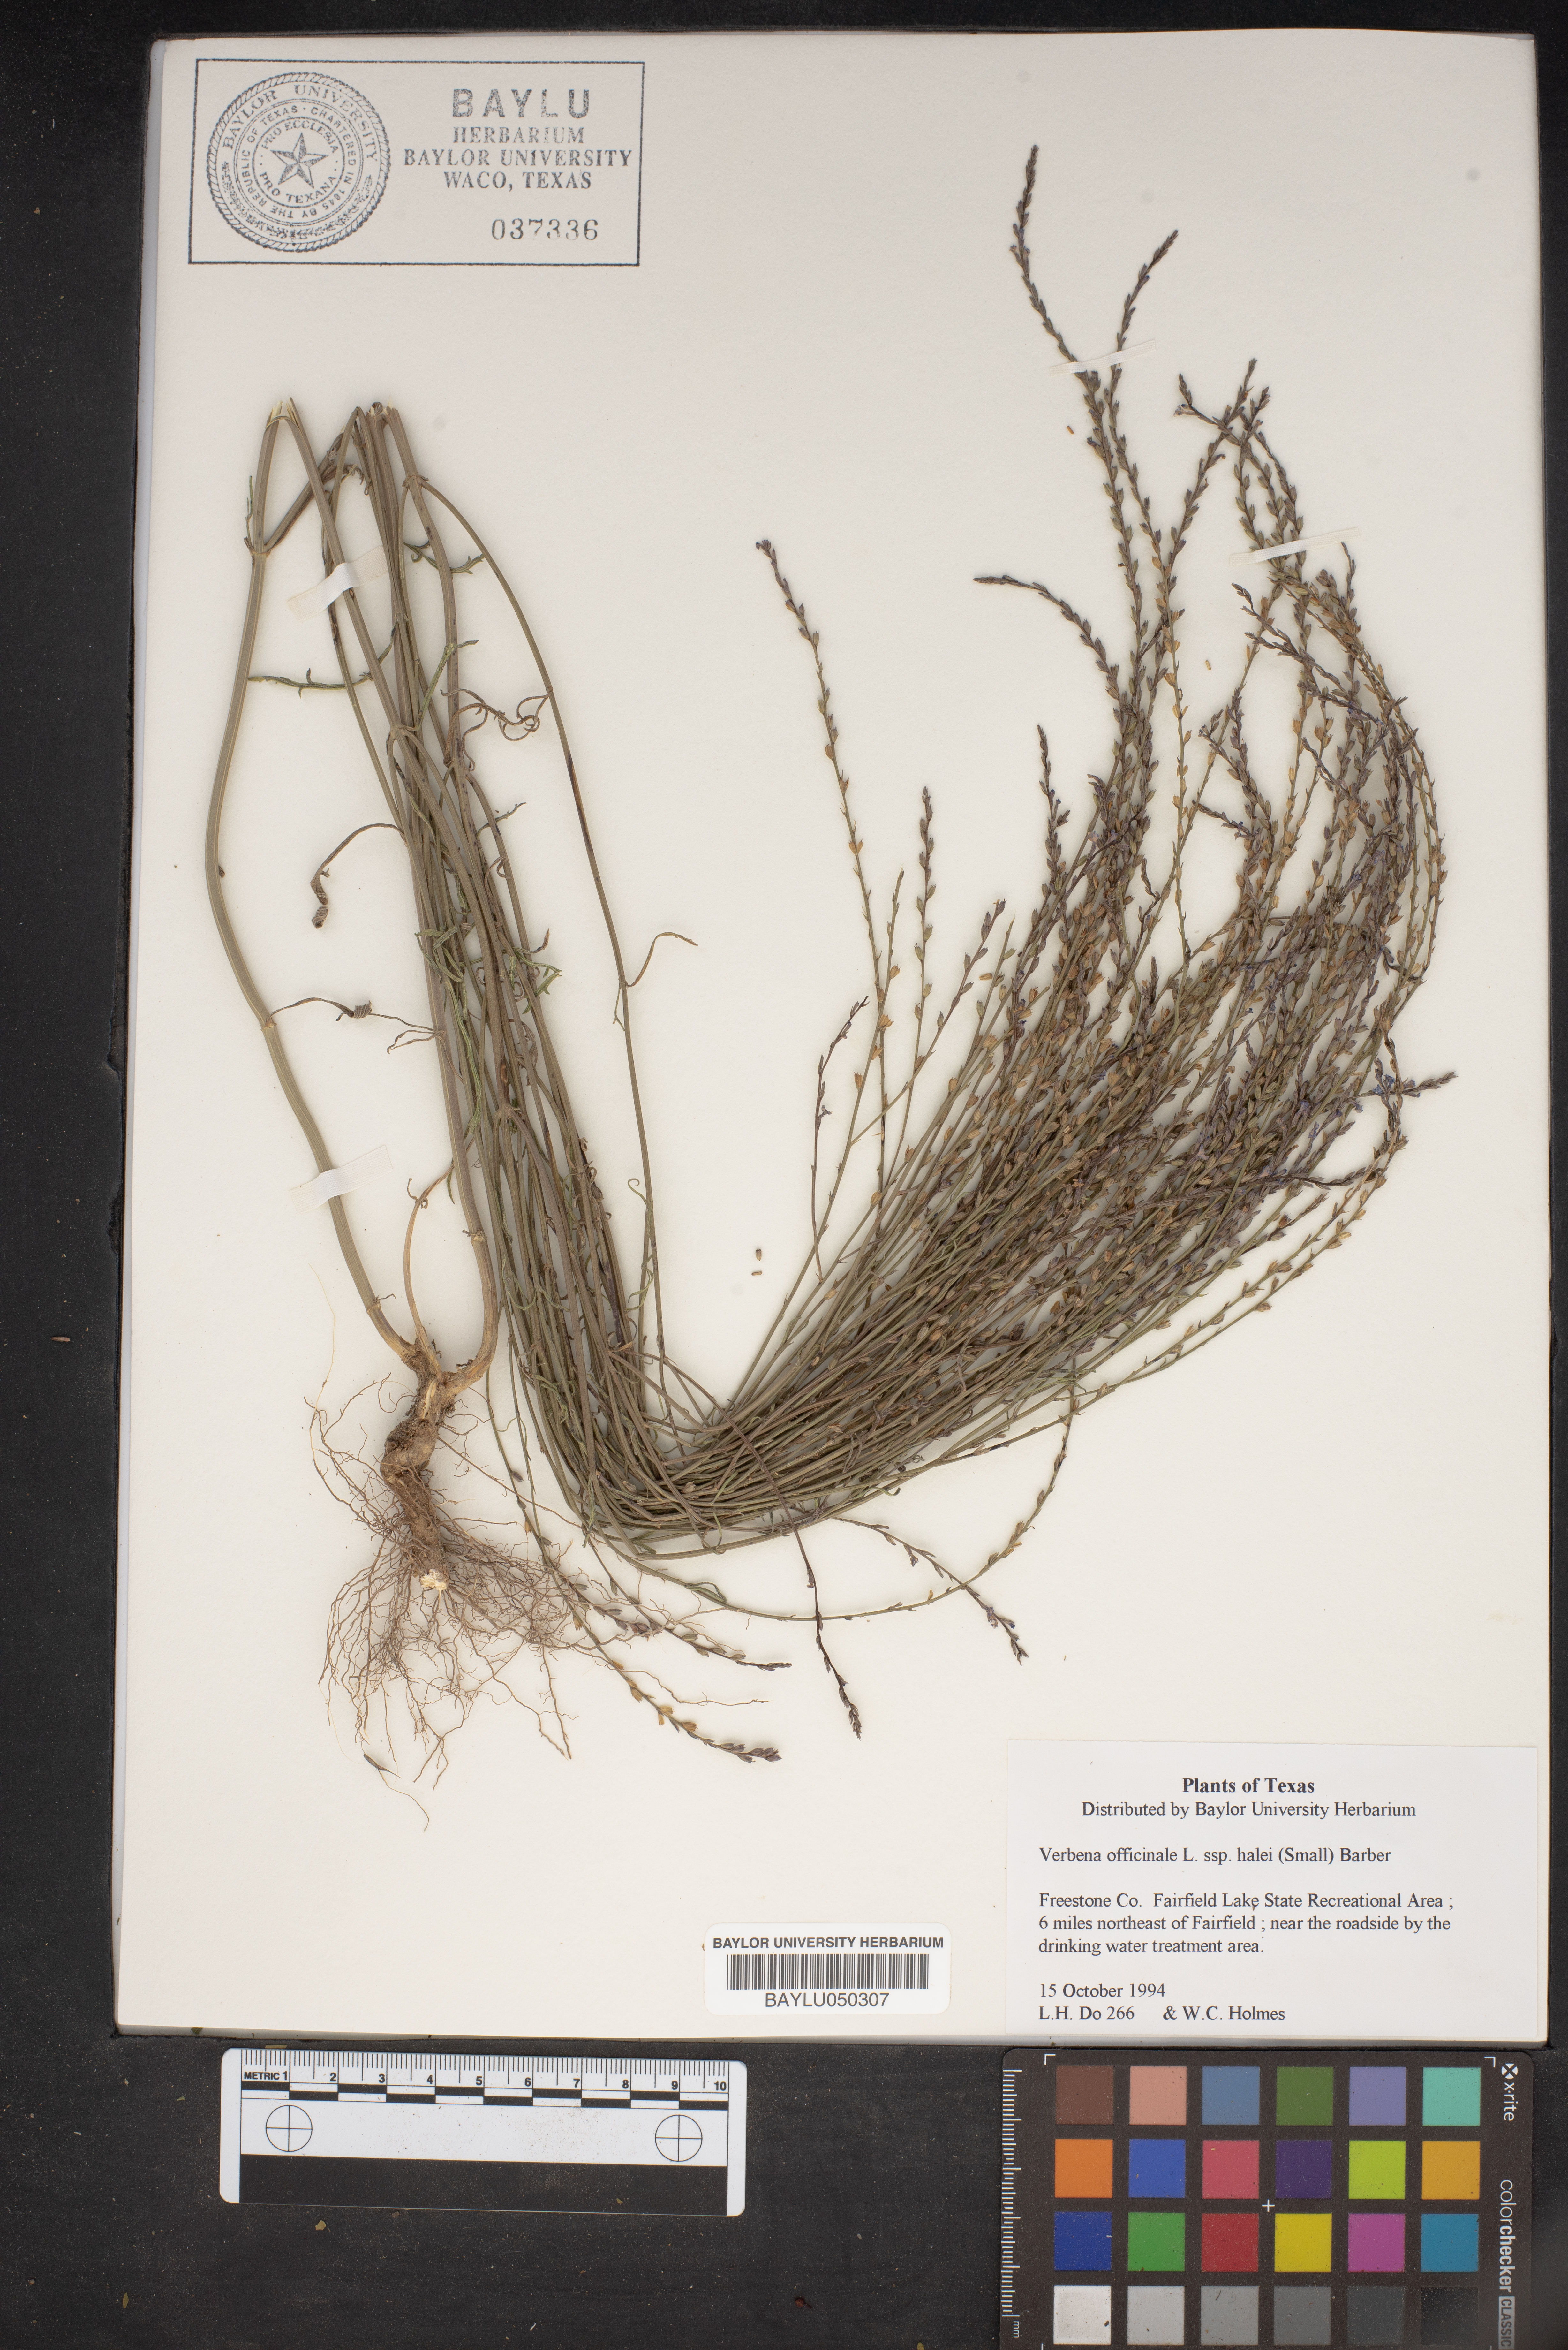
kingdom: Plantae
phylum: Tracheophyta
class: Magnoliopsida
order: Lamiales
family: Verbenaceae
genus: Verbena
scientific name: Verbena halei
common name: Texas vervain
